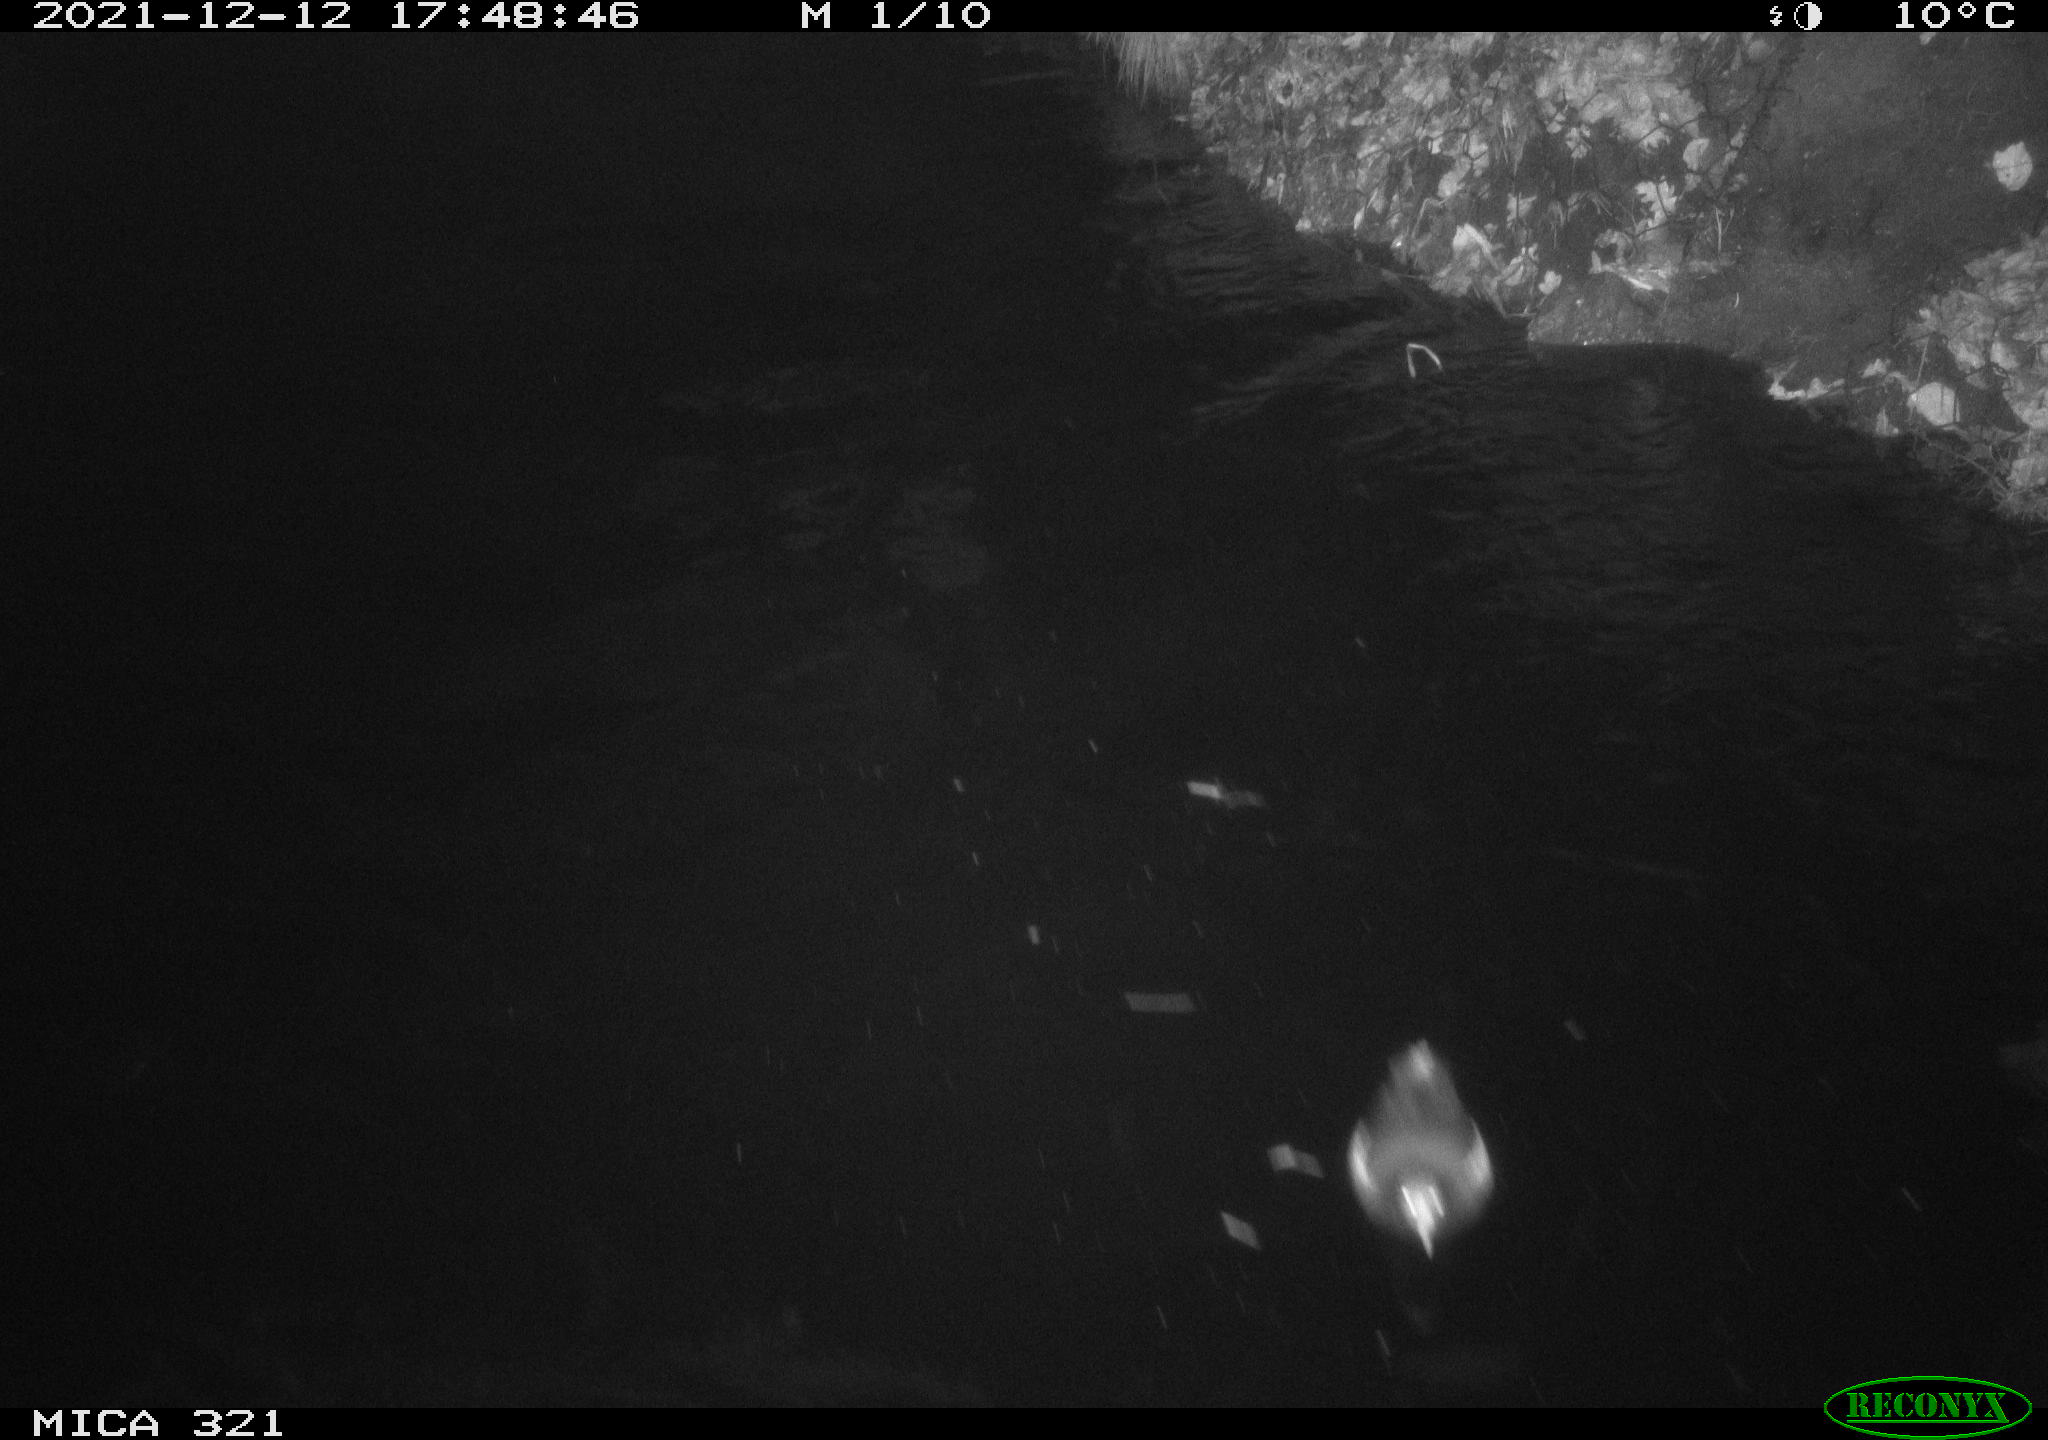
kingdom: Animalia
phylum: Chordata
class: Aves
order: Gruiformes
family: Rallidae
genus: Gallinula
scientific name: Gallinula chloropus
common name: Common moorhen
